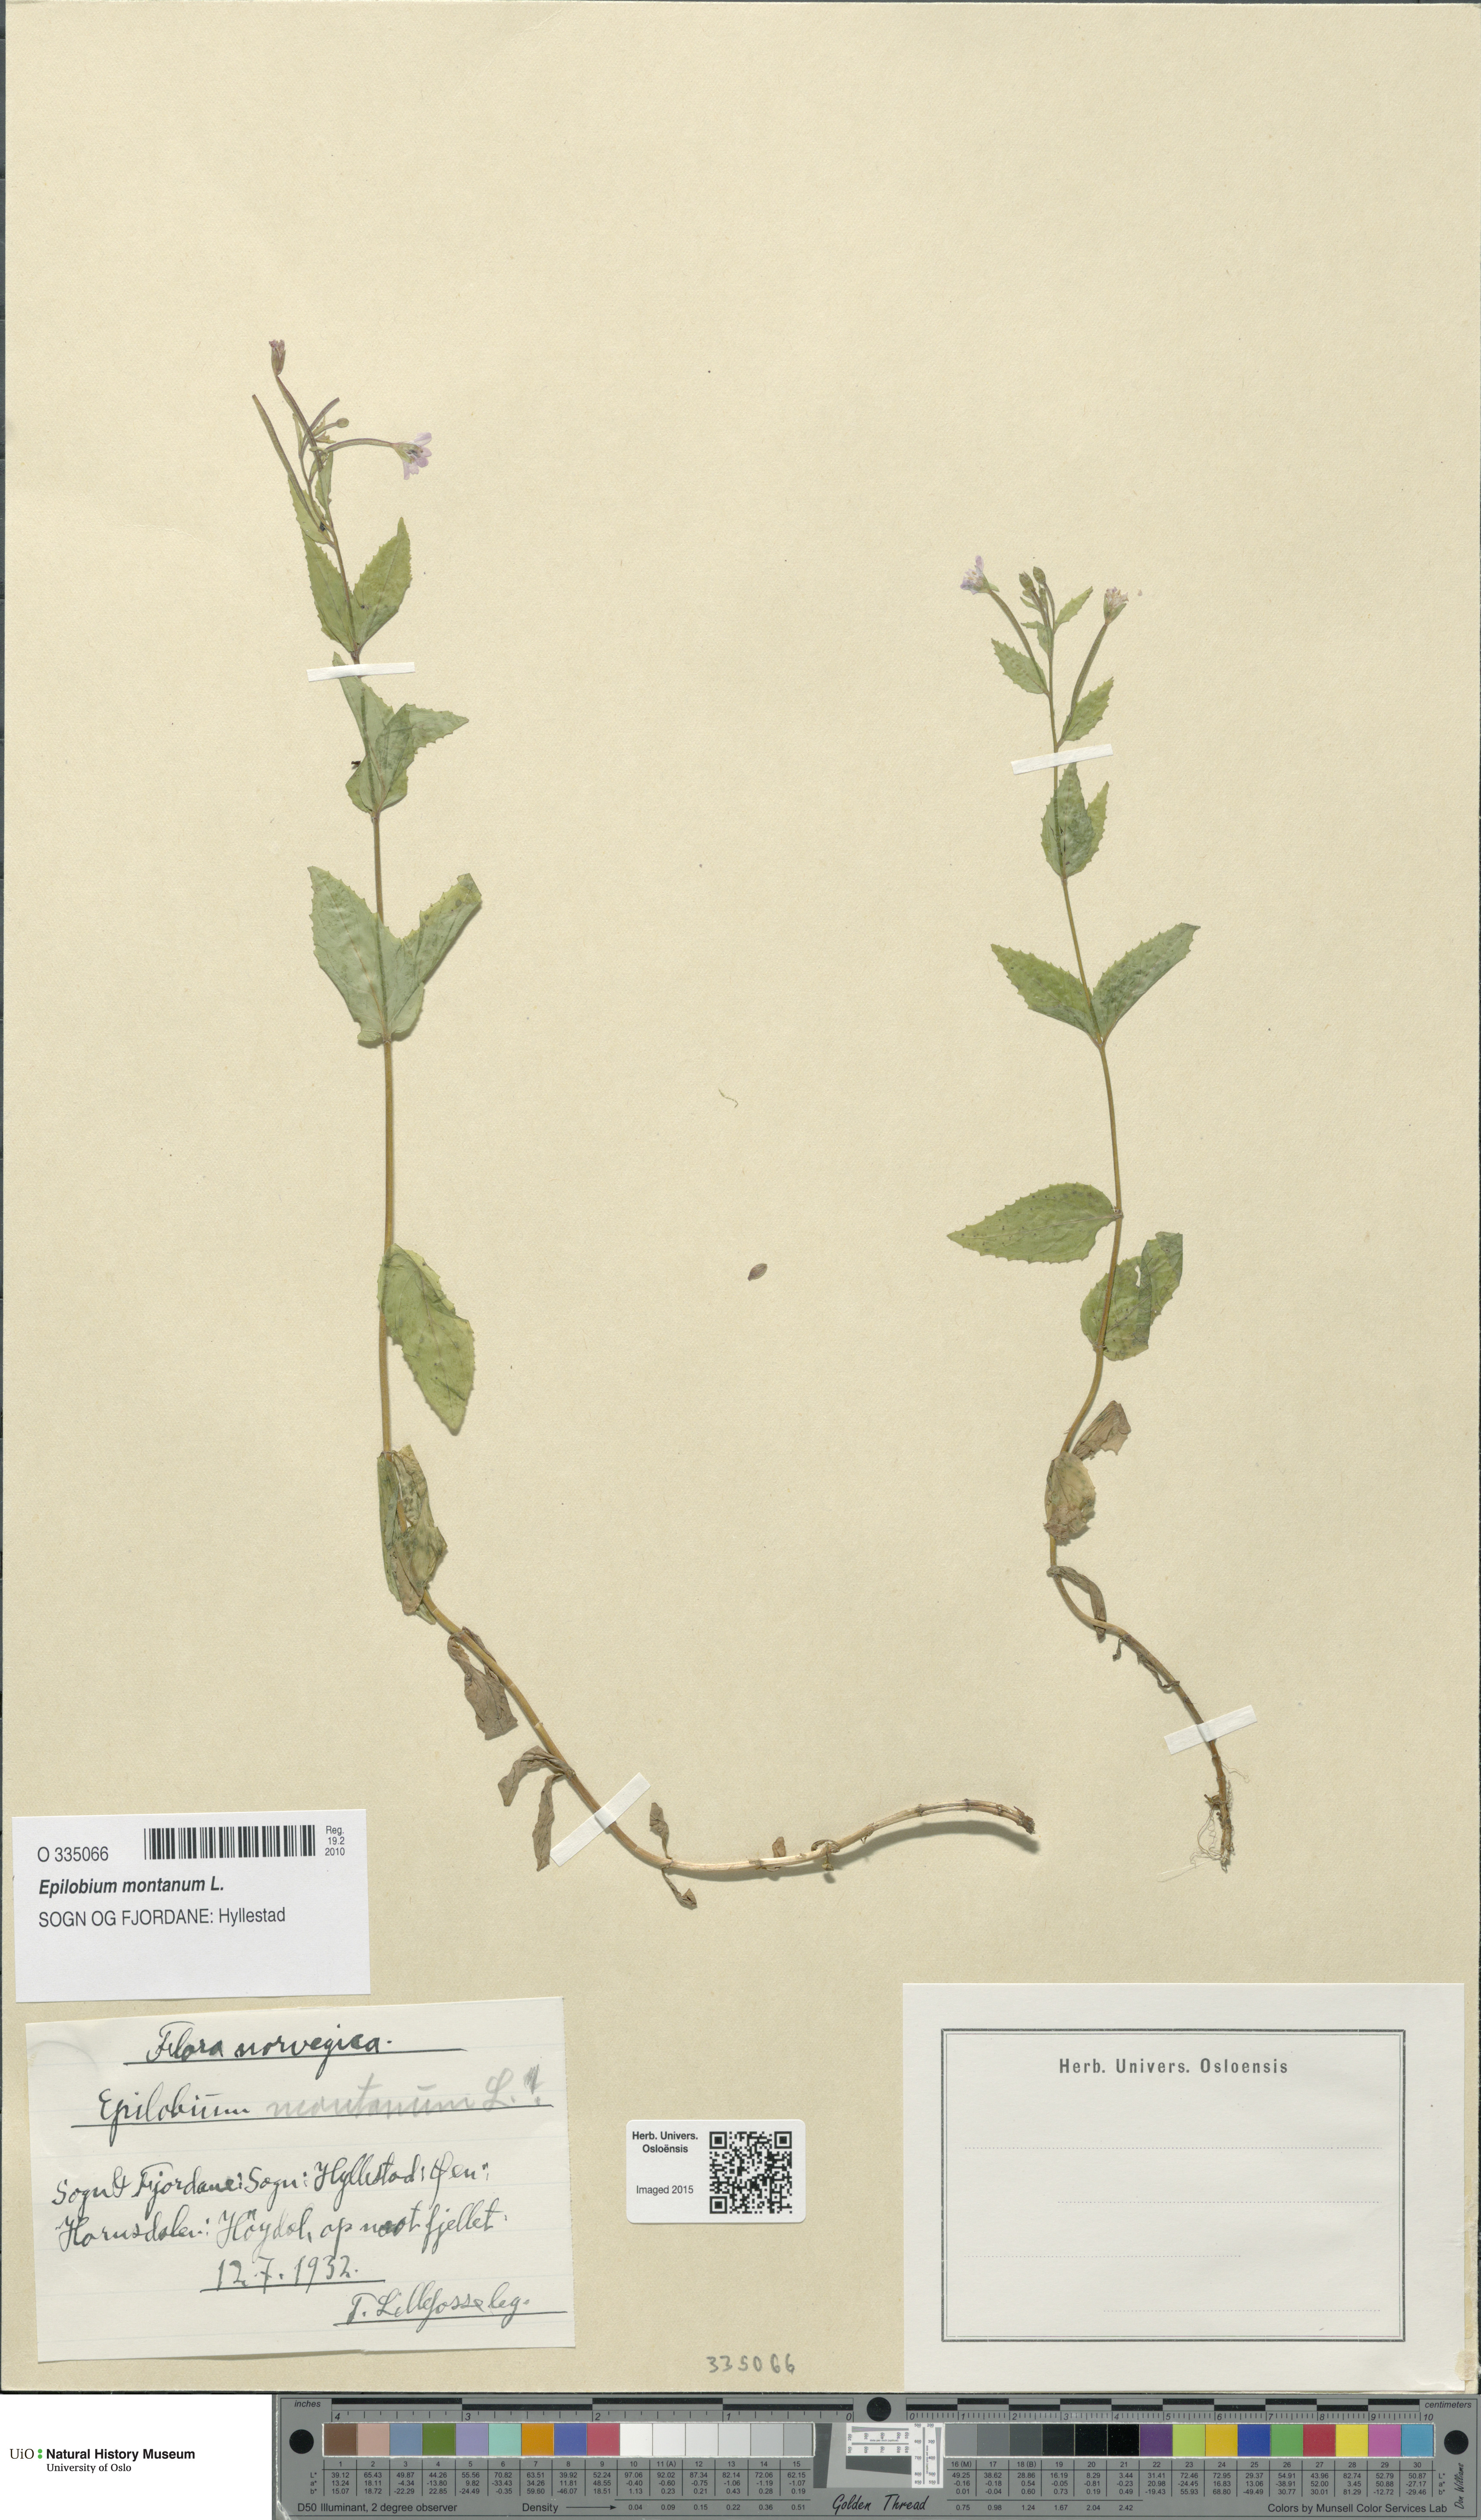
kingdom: Plantae
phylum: Tracheophyta
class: Magnoliopsida
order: Myrtales
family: Onagraceae
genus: Epilobium
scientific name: Epilobium montanum
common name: Broad-leaved willowherb
